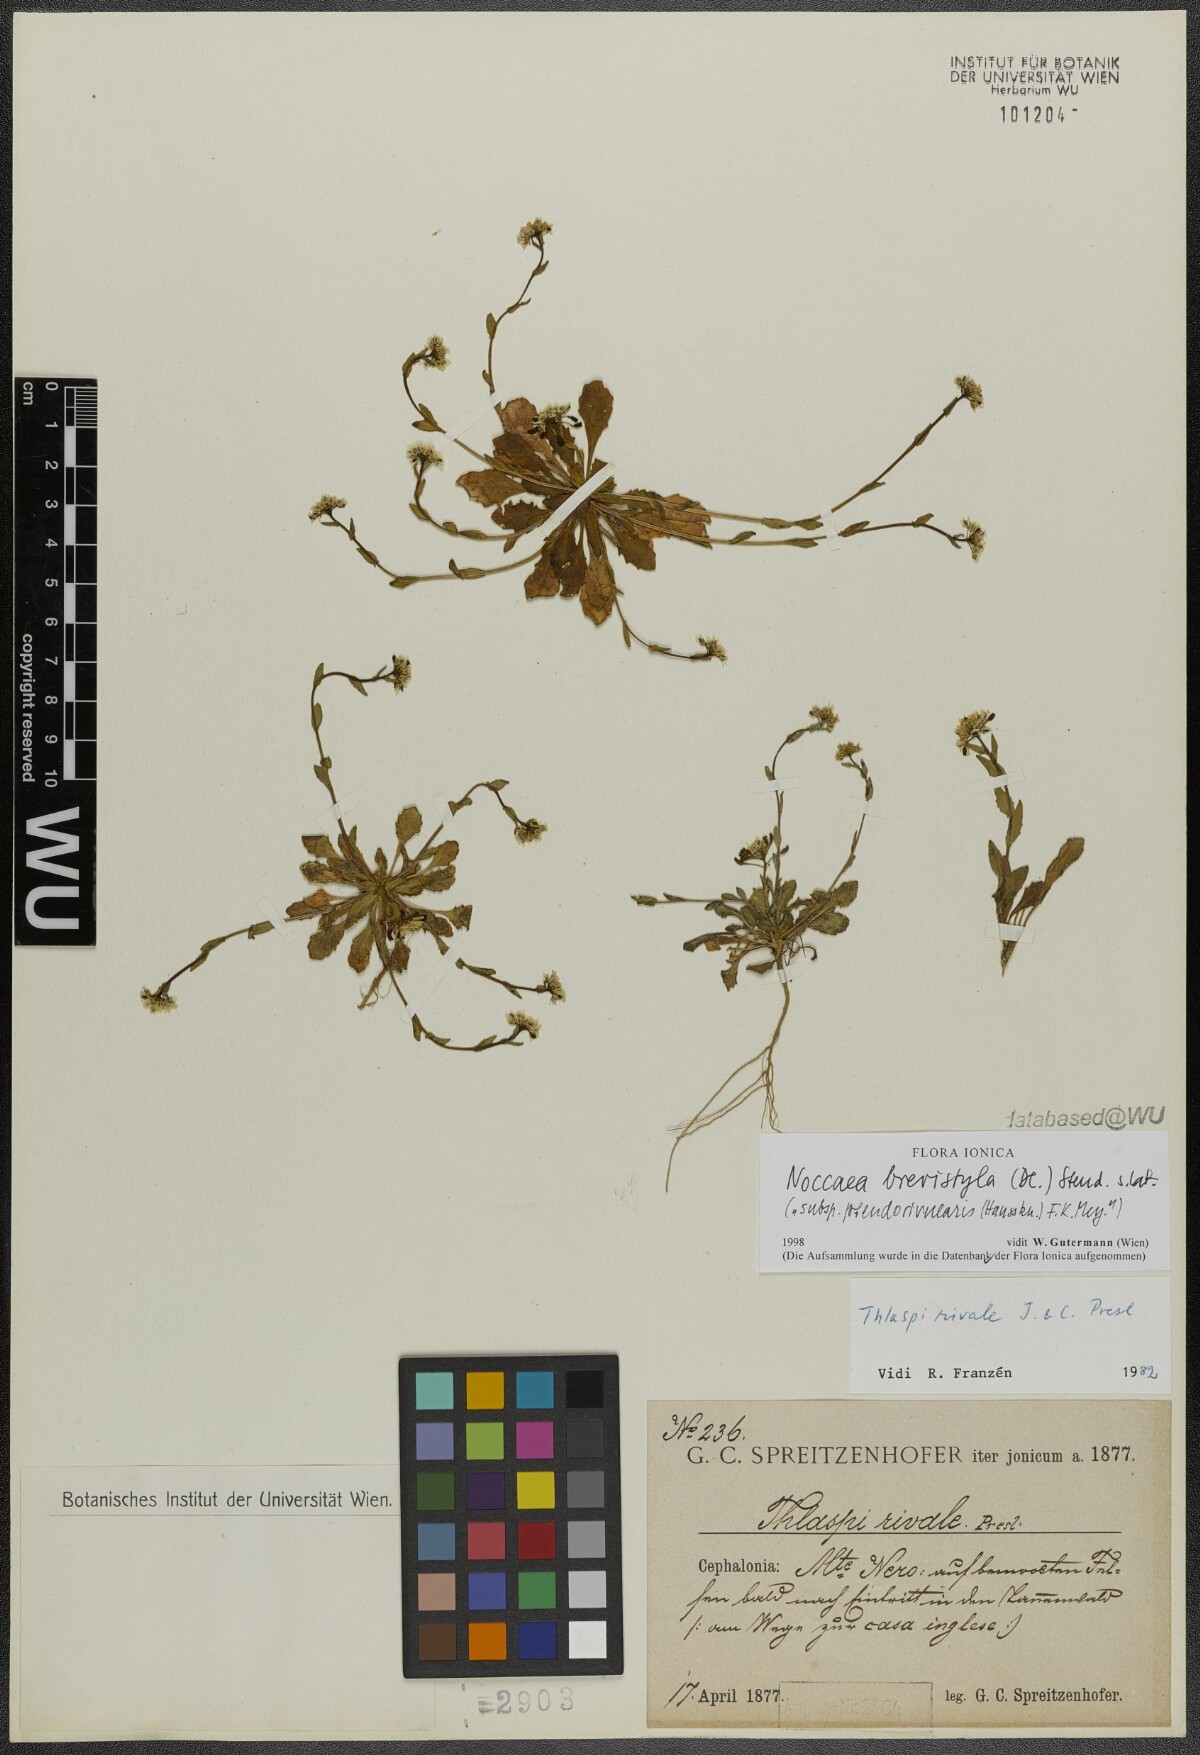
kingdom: Plantae
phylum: Tracheophyta
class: Magnoliopsida
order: Brassicales
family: Brassicaceae
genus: Noccaea
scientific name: Noccaea brevistyla
